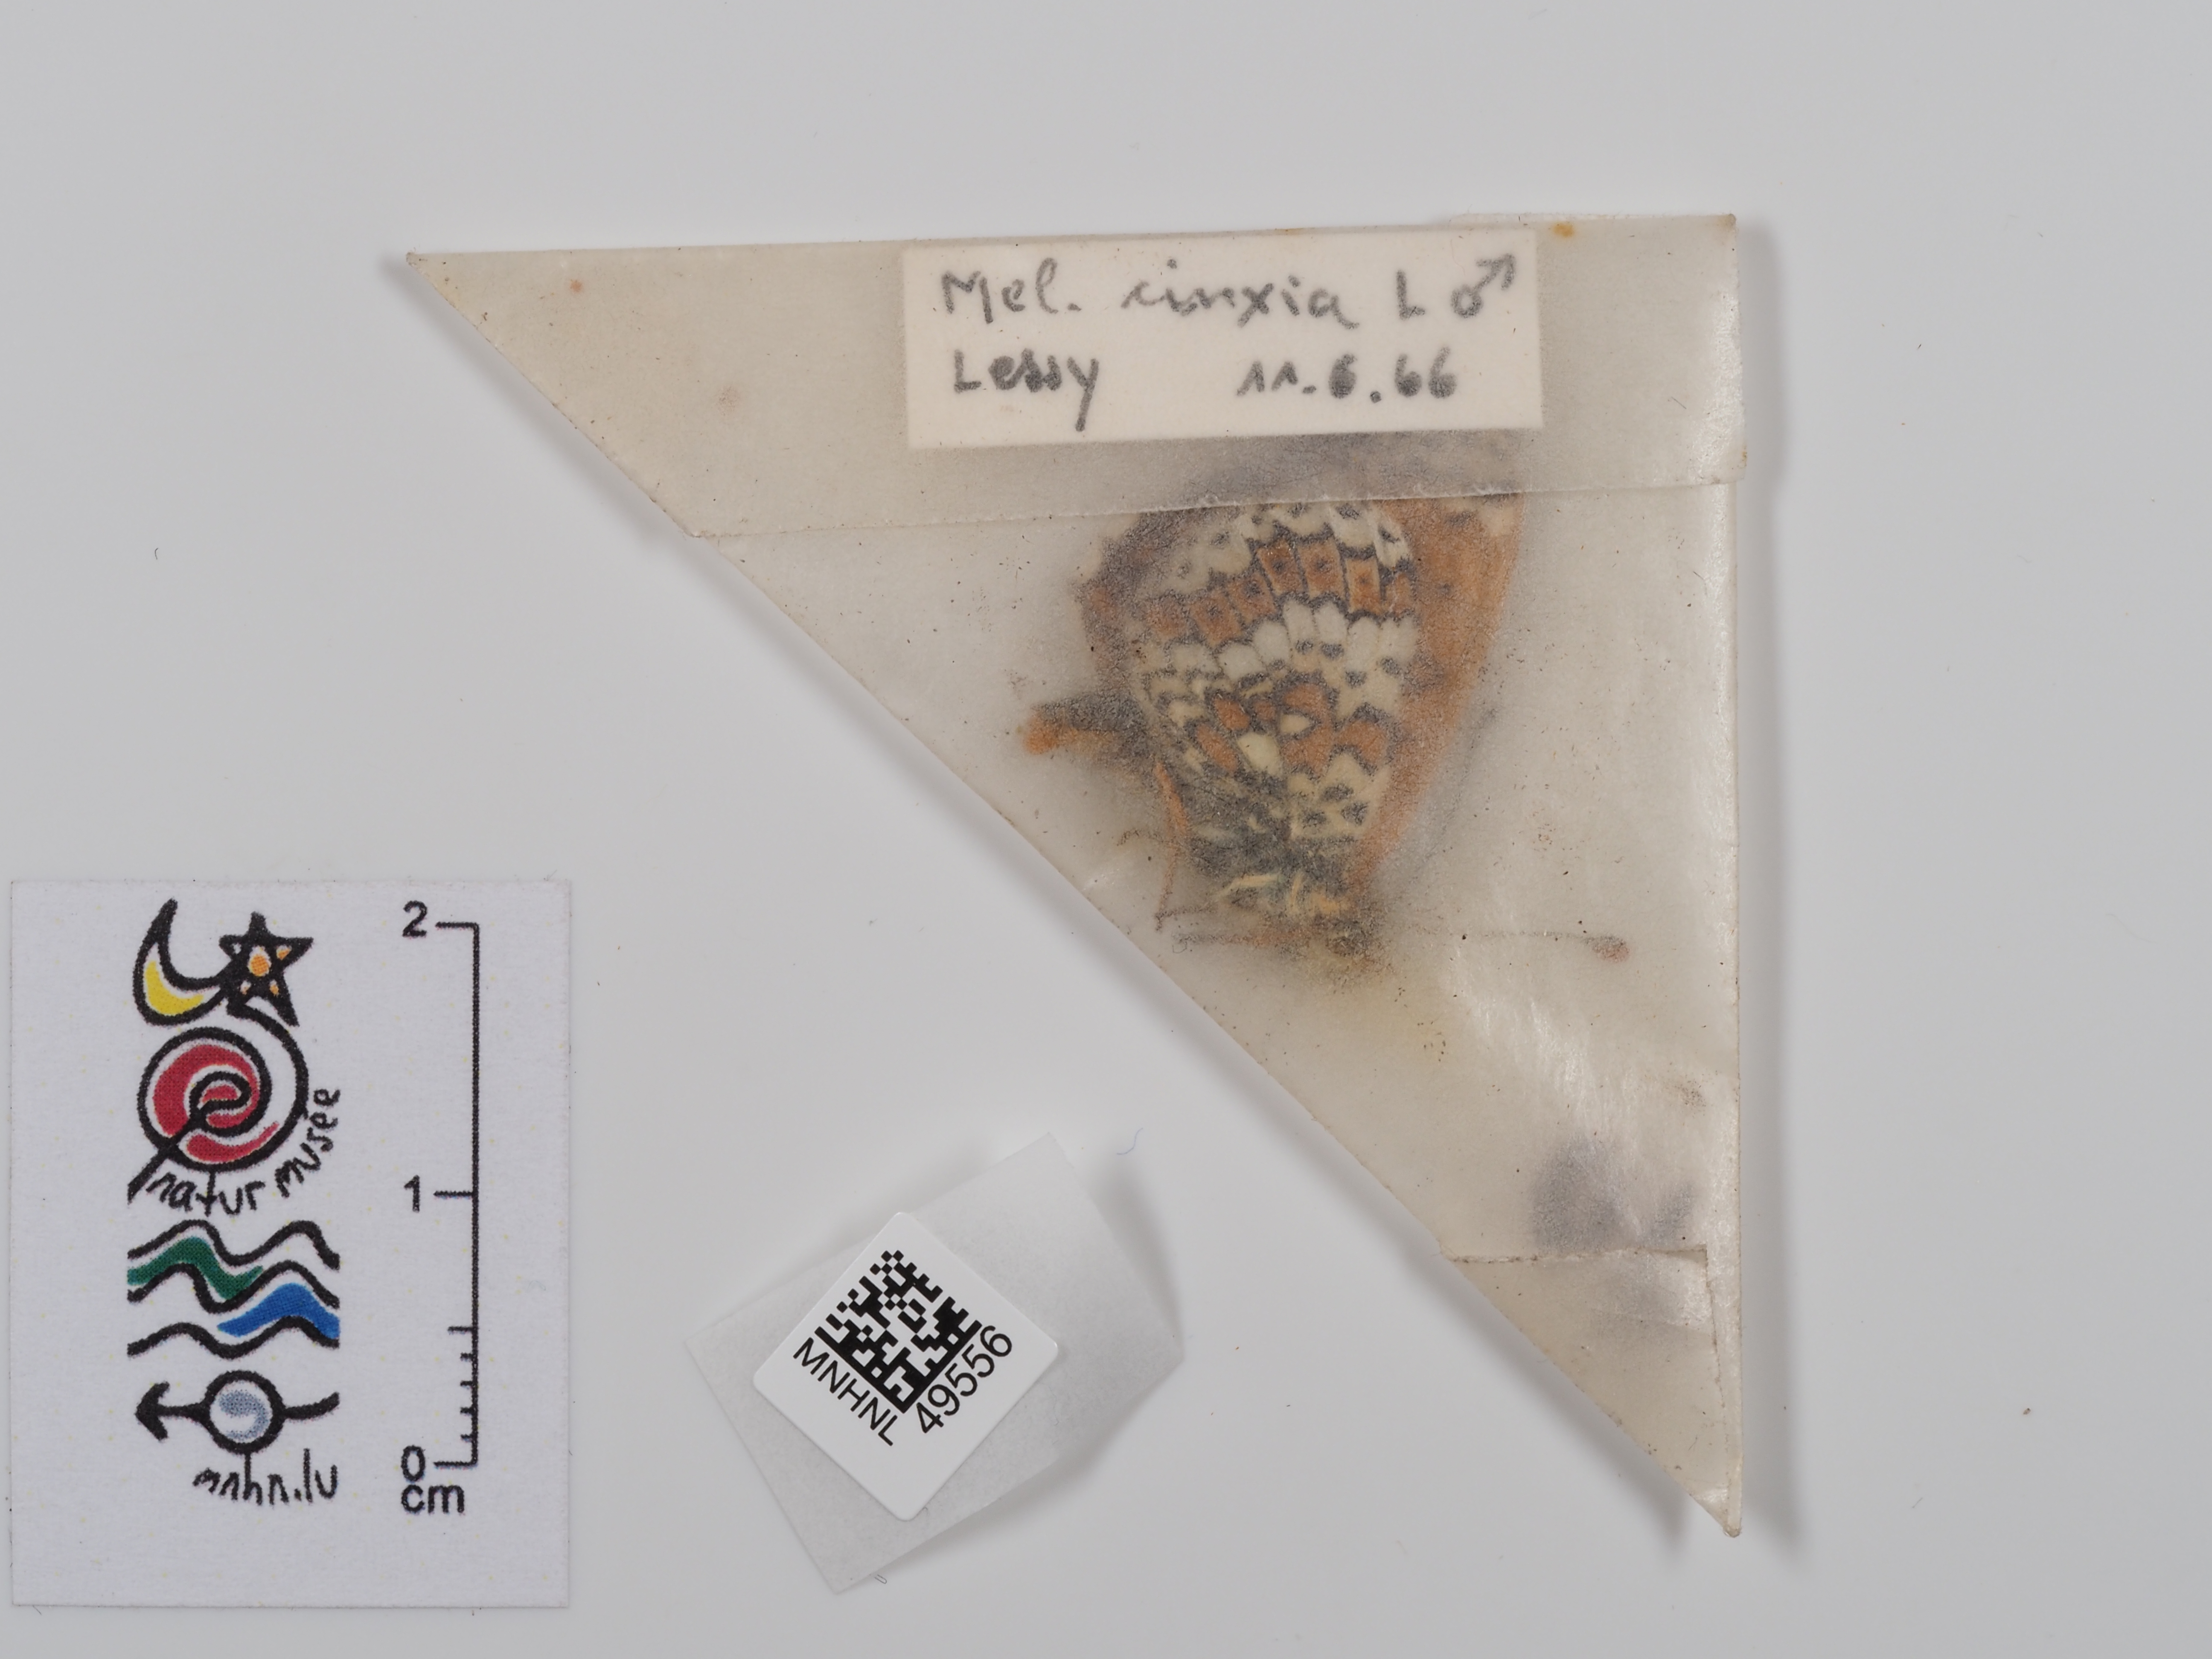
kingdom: Animalia
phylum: Arthropoda
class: Insecta
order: Lepidoptera
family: Nymphalidae
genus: Melitaea
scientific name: Melitaea cinxia
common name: Glanville fritillary
